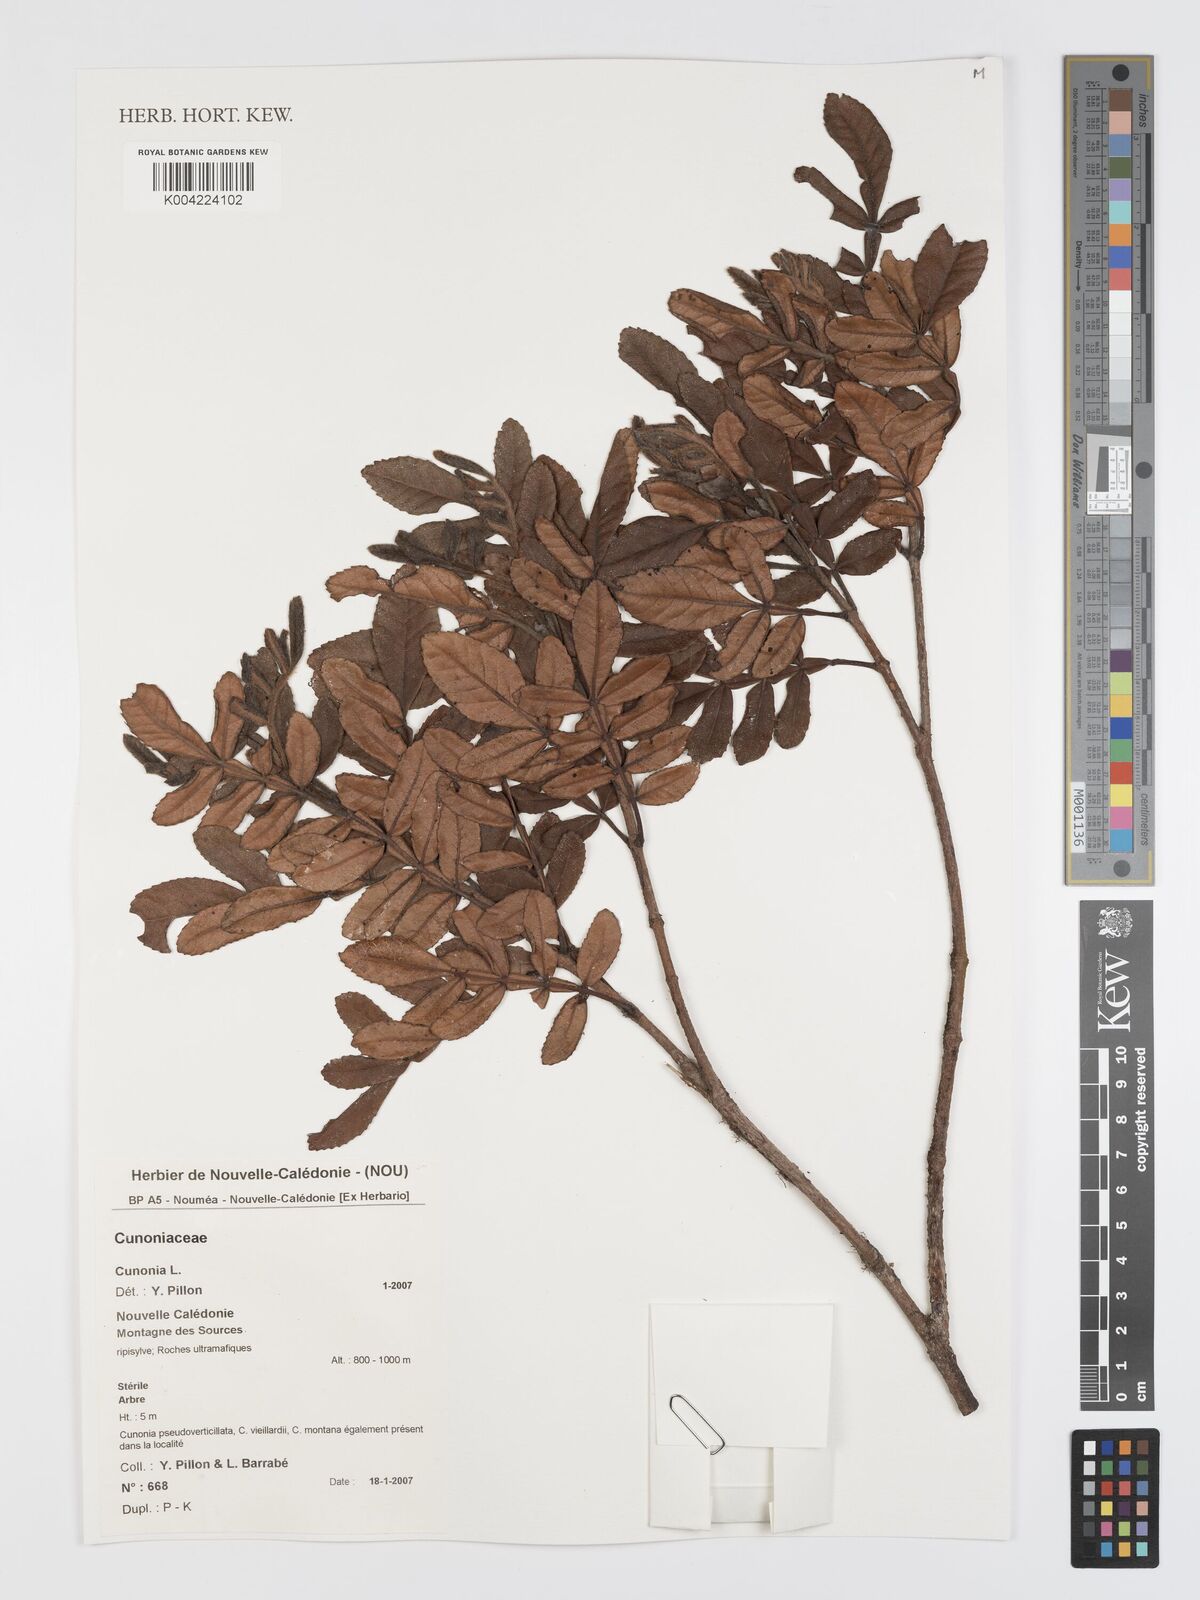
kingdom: Plantae
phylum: Tracheophyta
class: Magnoliopsida
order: Oxalidales
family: Cunoniaceae
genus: Cunonia
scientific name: Cunonia alticola
